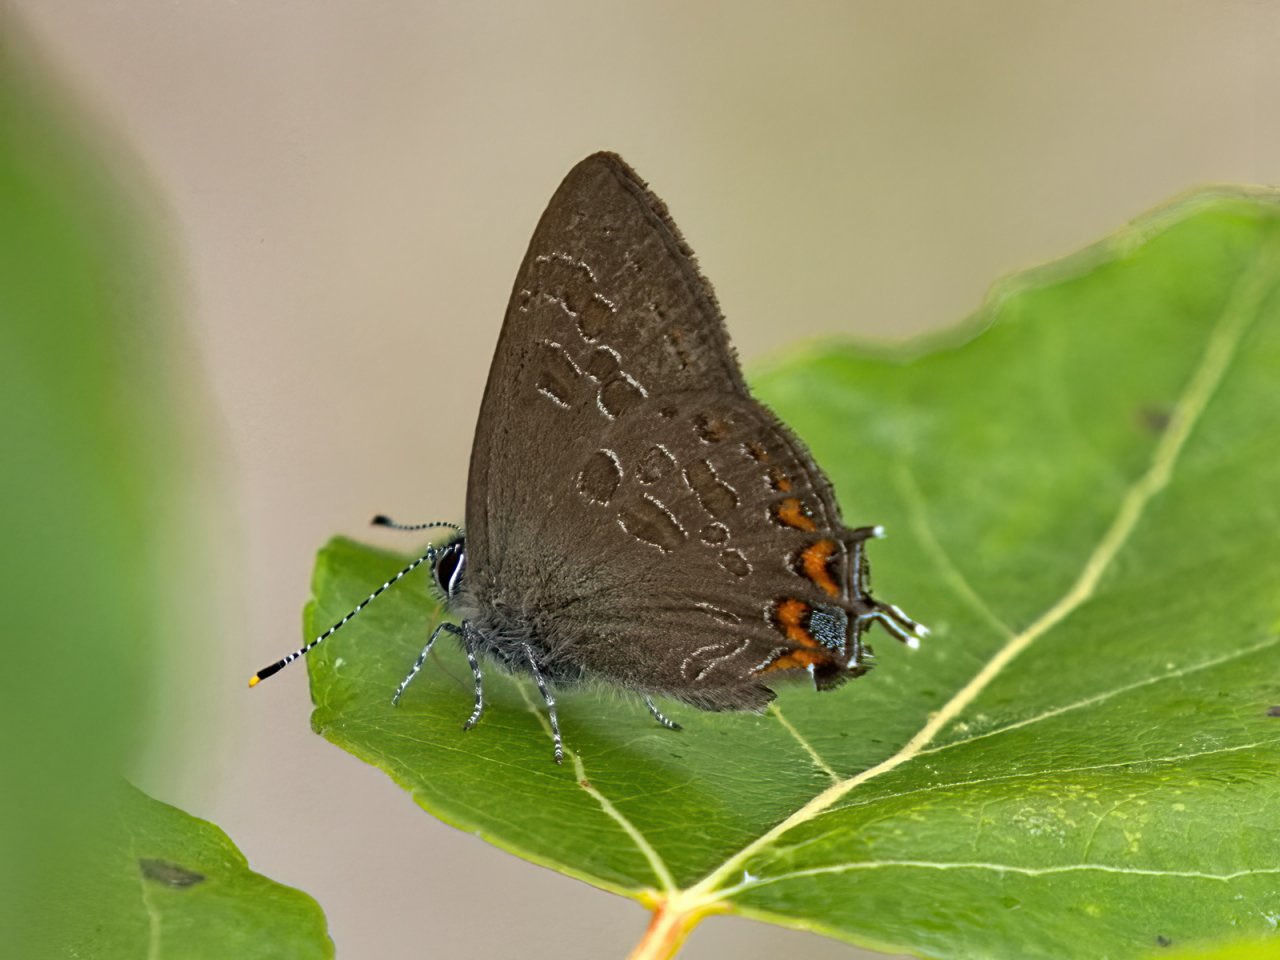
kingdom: Animalia
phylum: Arthropoda
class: Insecta
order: Lepidoptera
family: Lycaenidae
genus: Satyrium
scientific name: Satyrium liparops
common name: Striped Hairstreak
